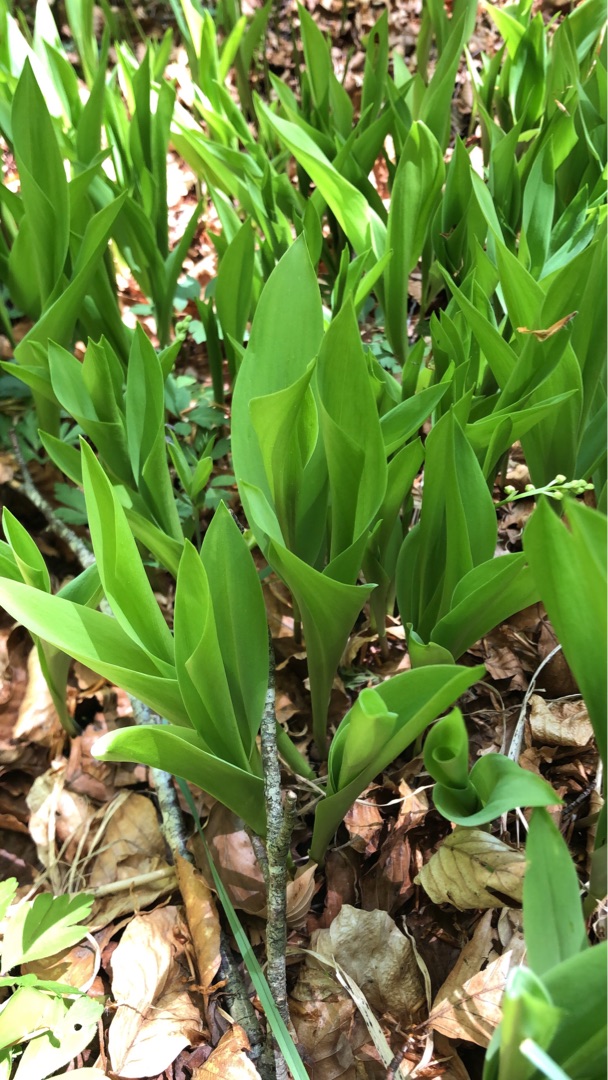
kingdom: Plantae
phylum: Tracheophyta
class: Liliopsida
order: Asparagales
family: Asparagaceae
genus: Convallaria
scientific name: Convallaria majalis
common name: Liljekonval
